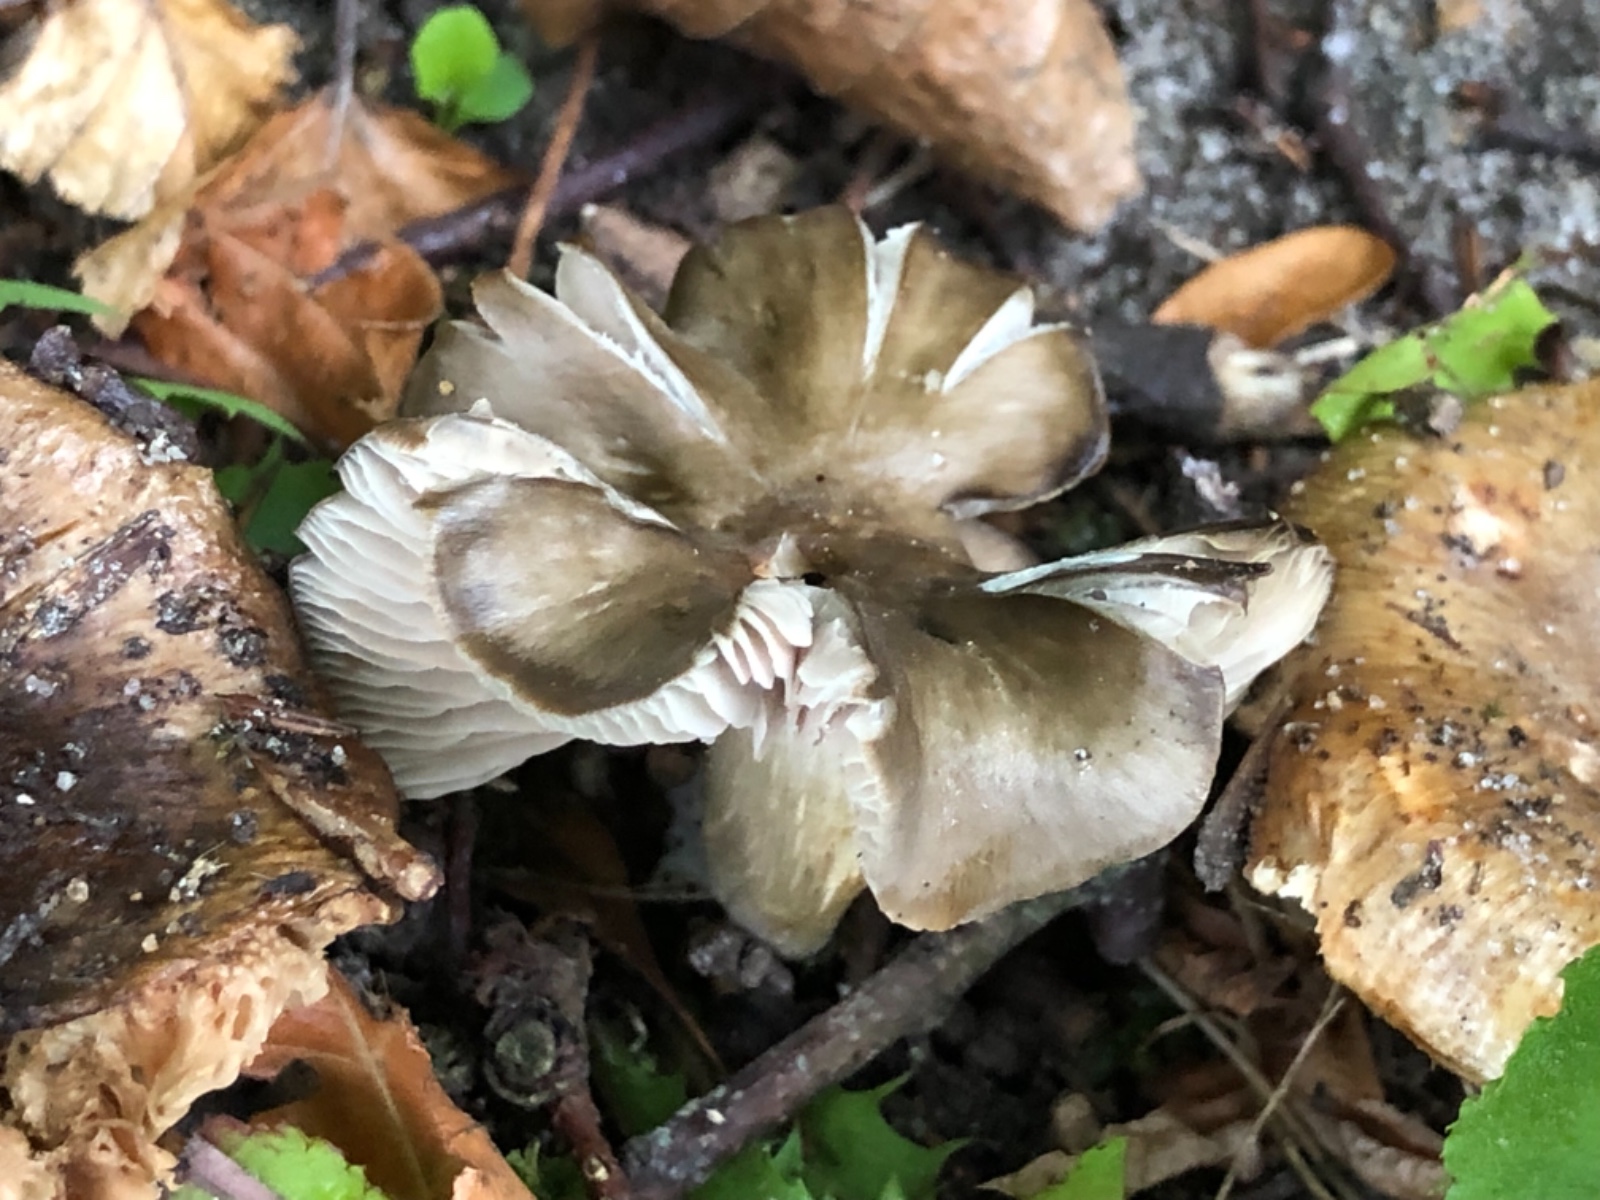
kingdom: Fungi
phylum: Basidiomycota
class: Agaricomycetes
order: Agaricales
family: Entolomataceae
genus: Entoloma
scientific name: Entoloma
